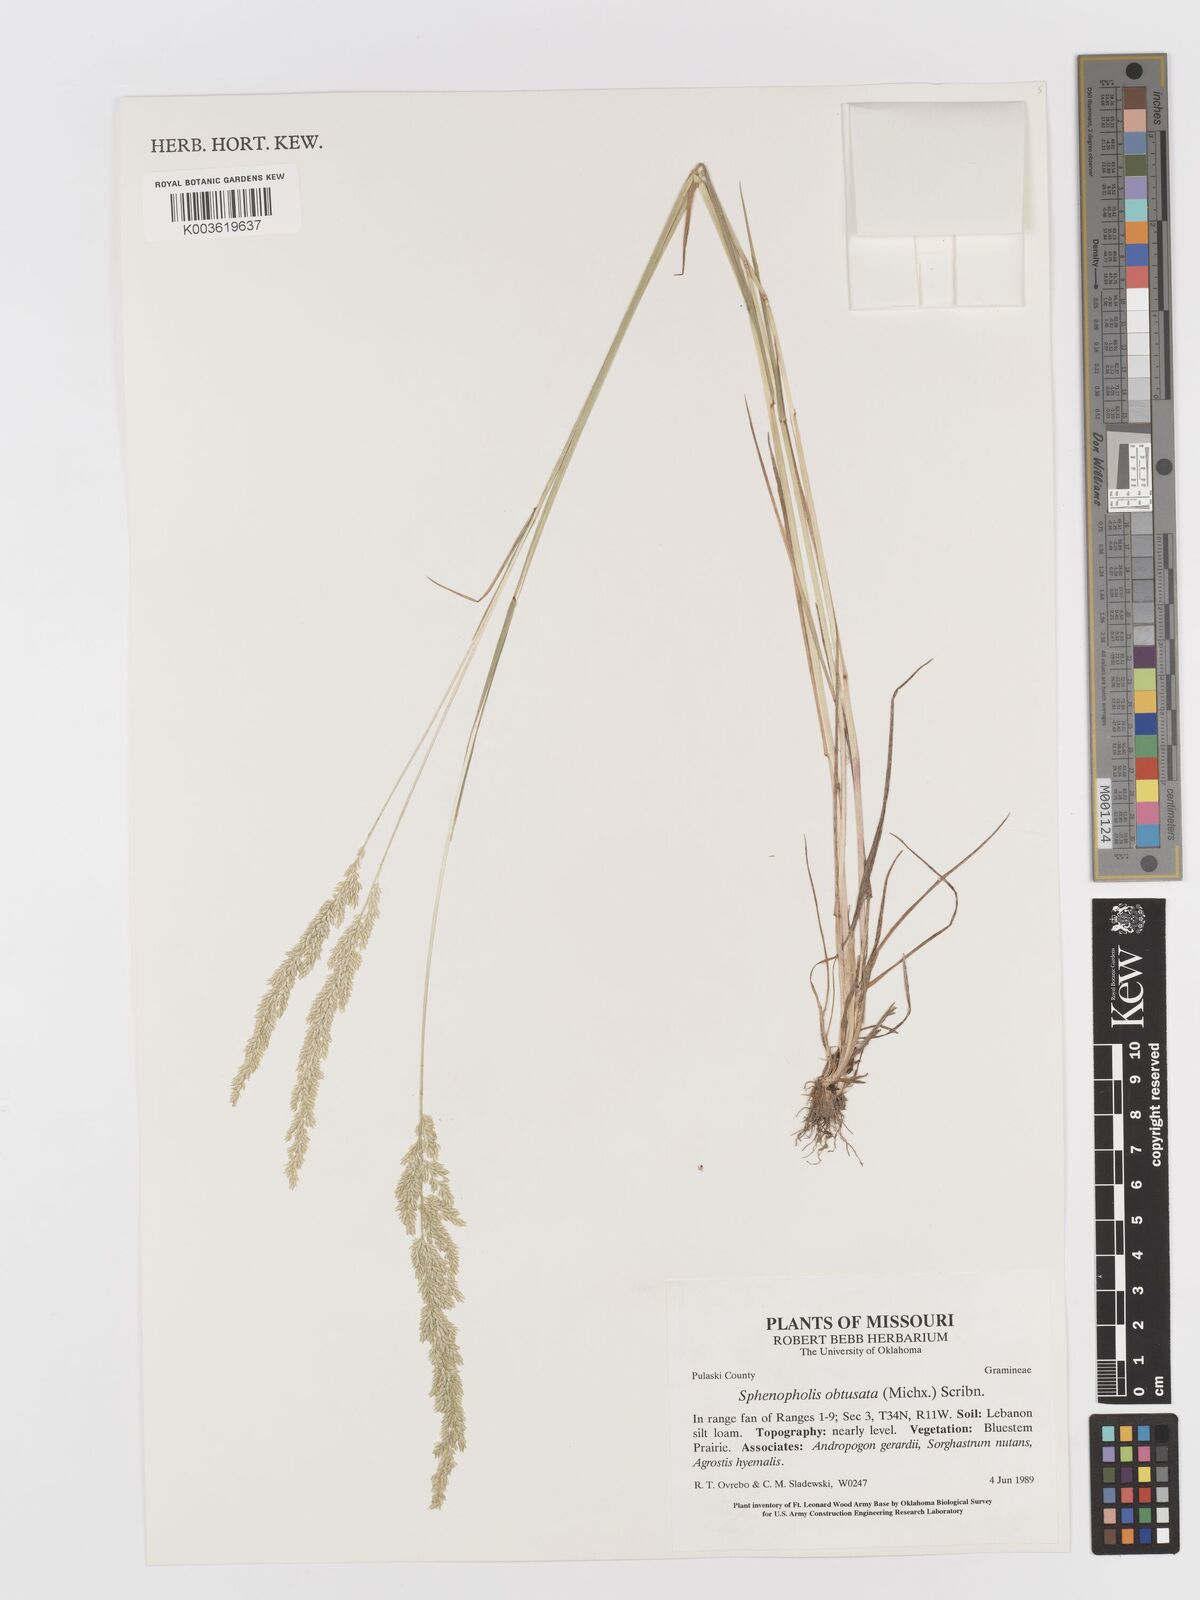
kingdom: Plantae
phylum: Tracheophyta
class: Liliopsida
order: Poales
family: Poaceae
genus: Sphenopholis
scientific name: Sphenopholis obtusata
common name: Prairie grass
